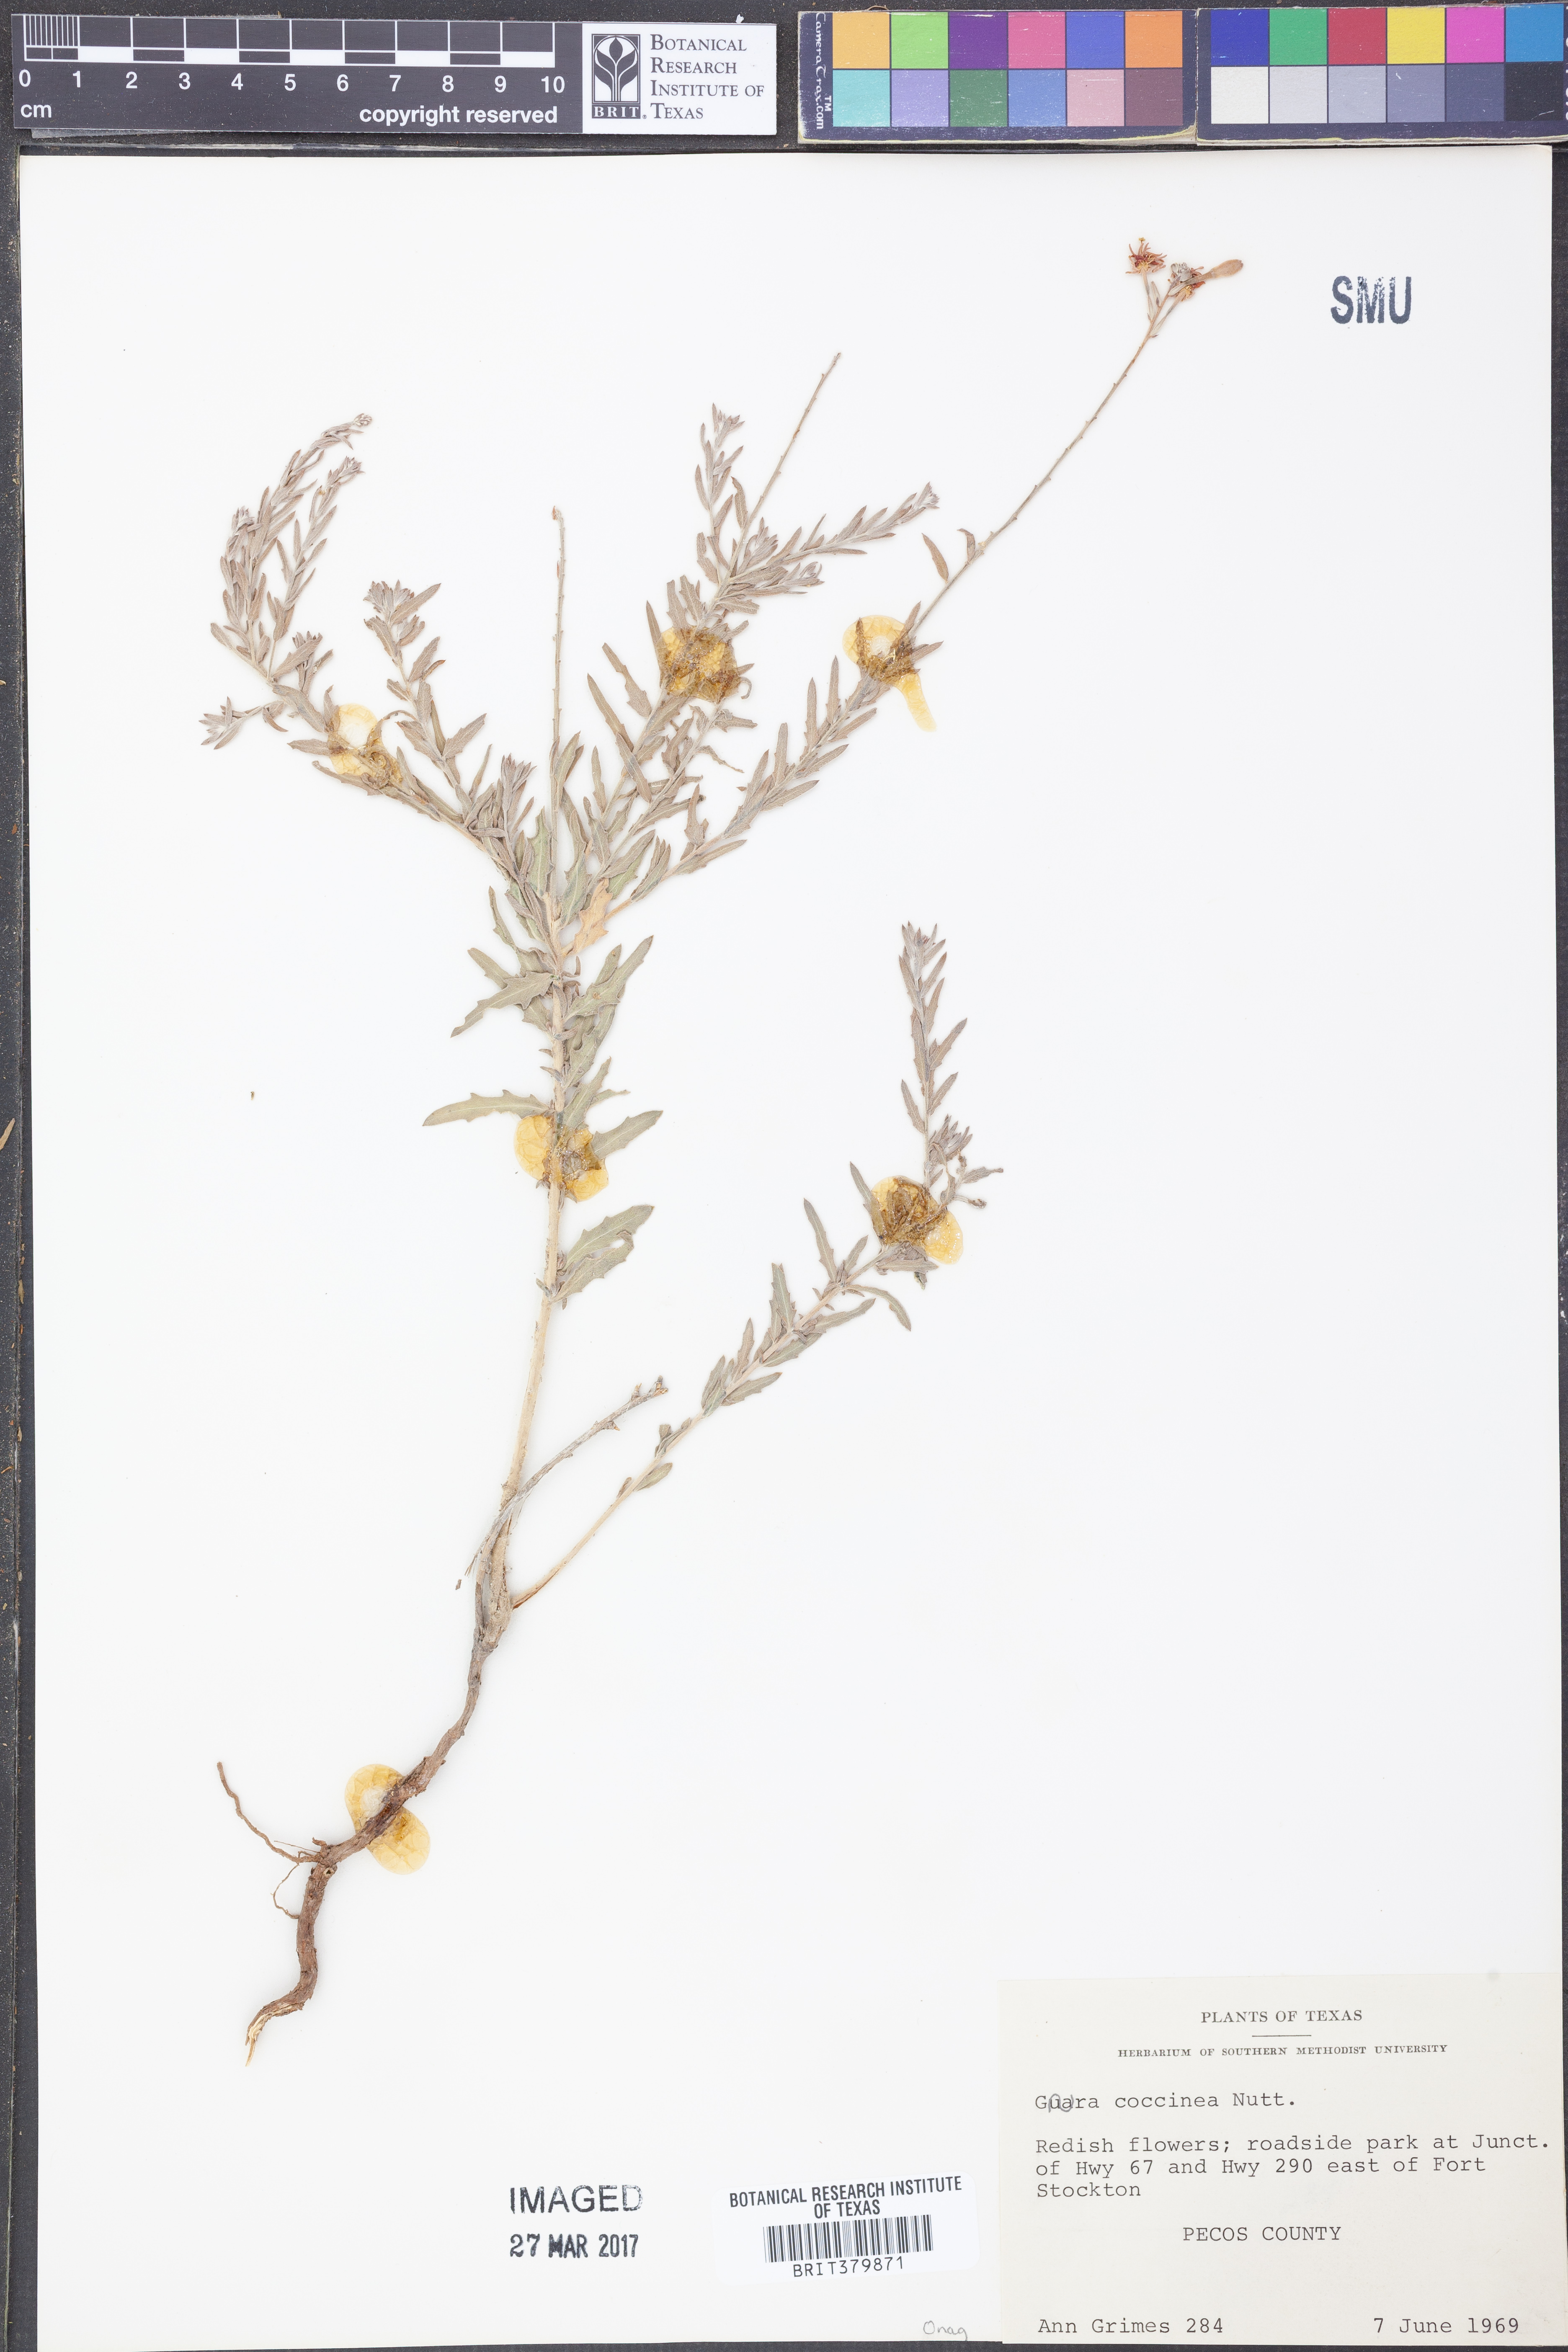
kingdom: Plantae
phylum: Tracheophyta
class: Magnoliopsida
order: Myrtales
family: Onagraceae
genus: Oenothera
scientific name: Oenothera suffrutescens
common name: Scarlet beeblossom
